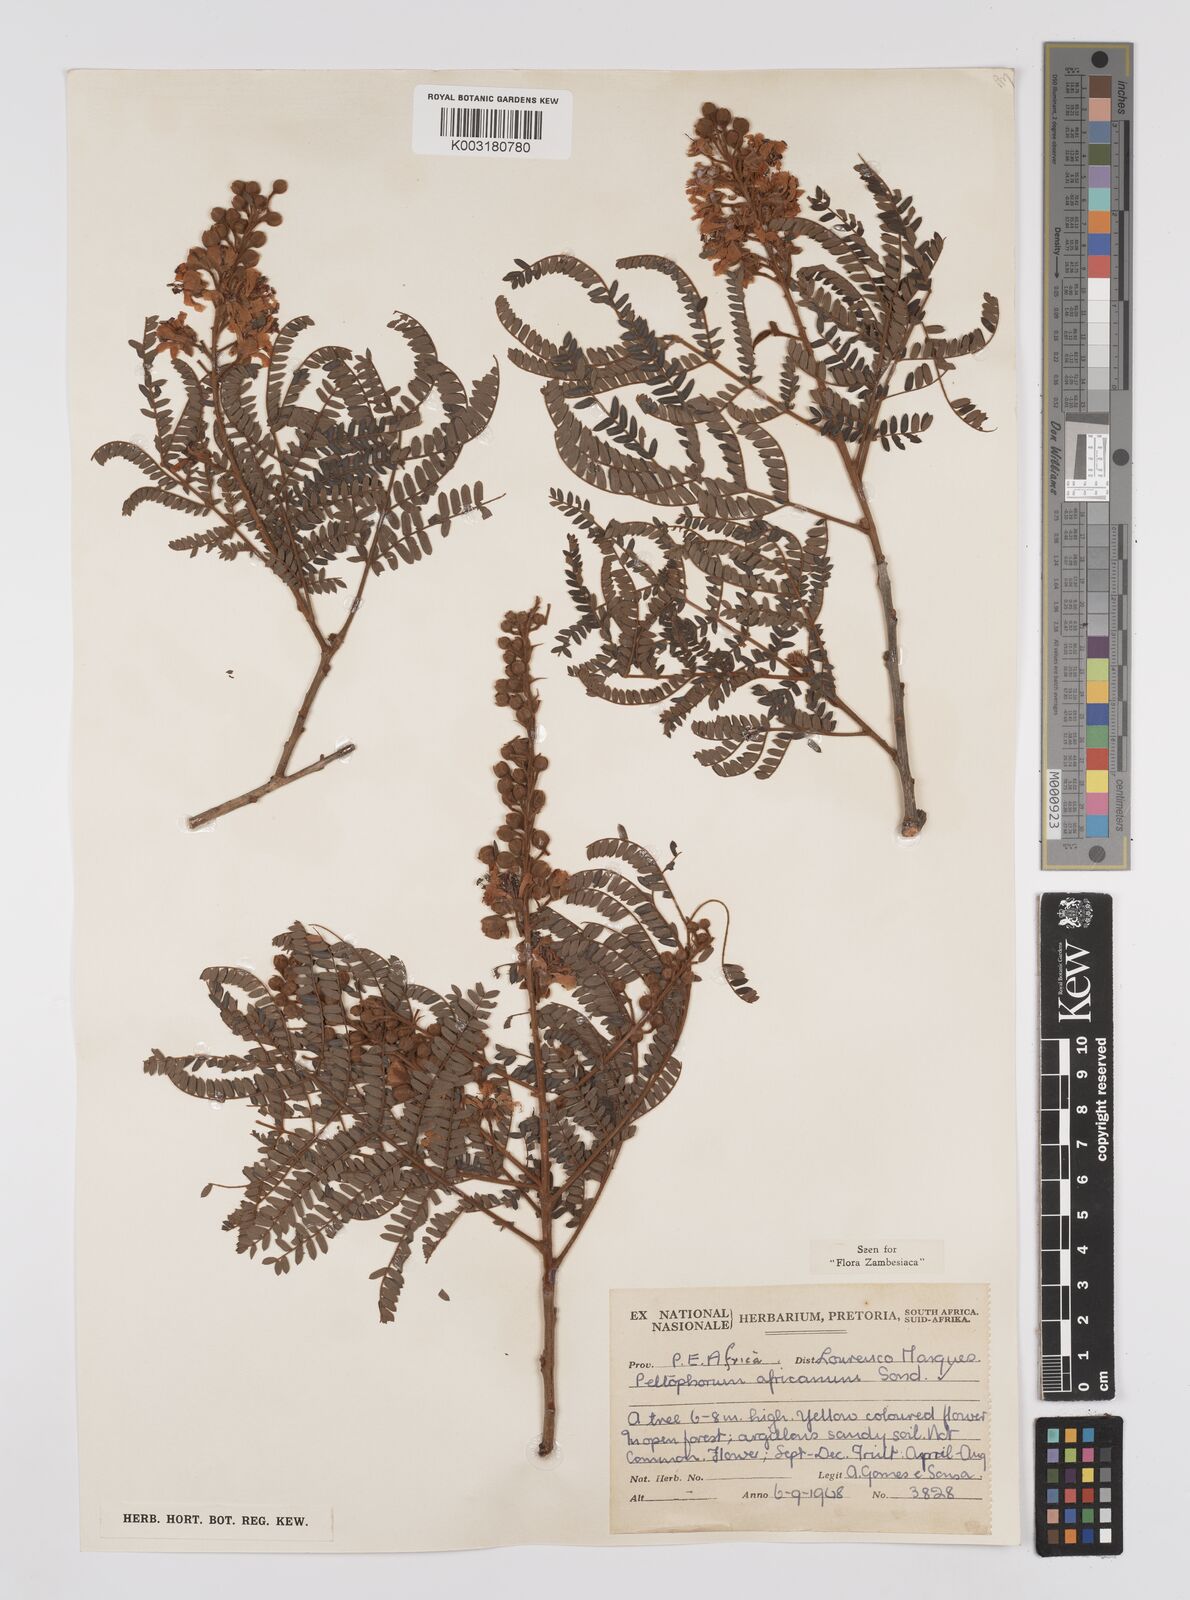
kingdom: Plantae
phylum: Tracheophyta
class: Magnoliopsida
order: Fabales
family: Fabaceae
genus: Peltophorum
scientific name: Peltophorum africanum
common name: African black wattle
